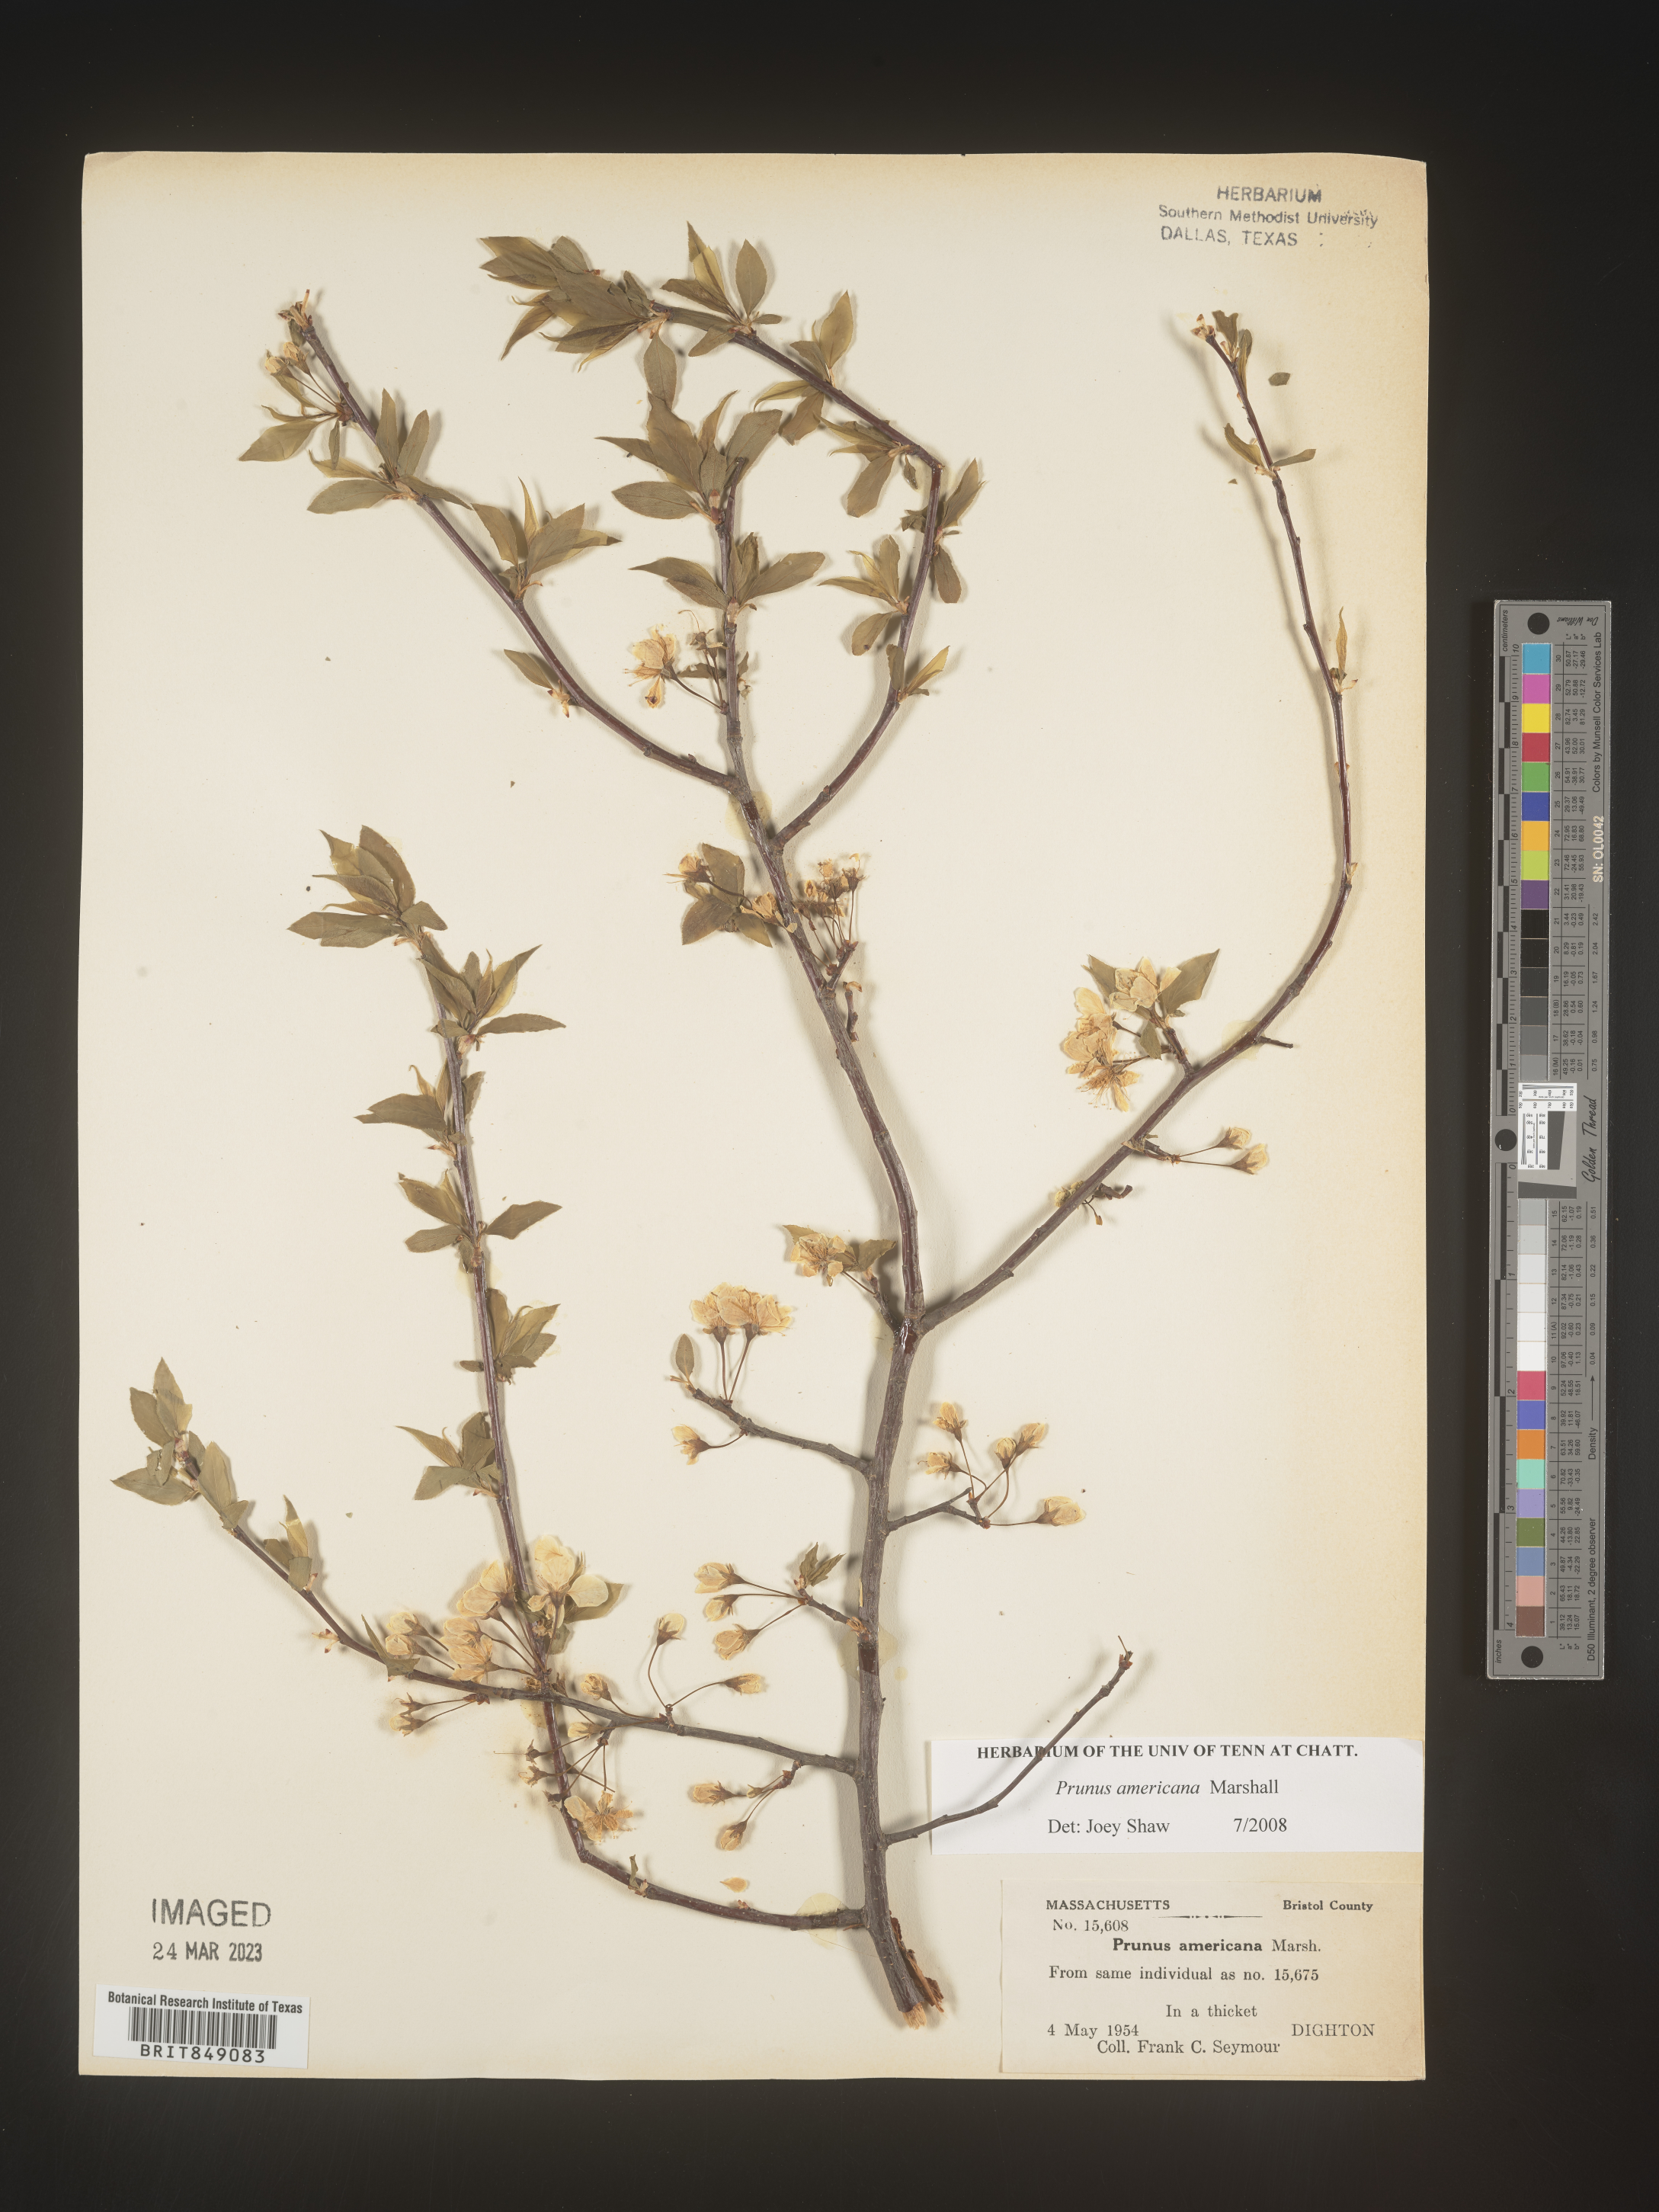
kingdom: Plantae
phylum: Tracheophyta
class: Magnoliopsida
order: Rosales
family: Rosaceae
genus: Prunus
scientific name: Prunus americana
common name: American plum
